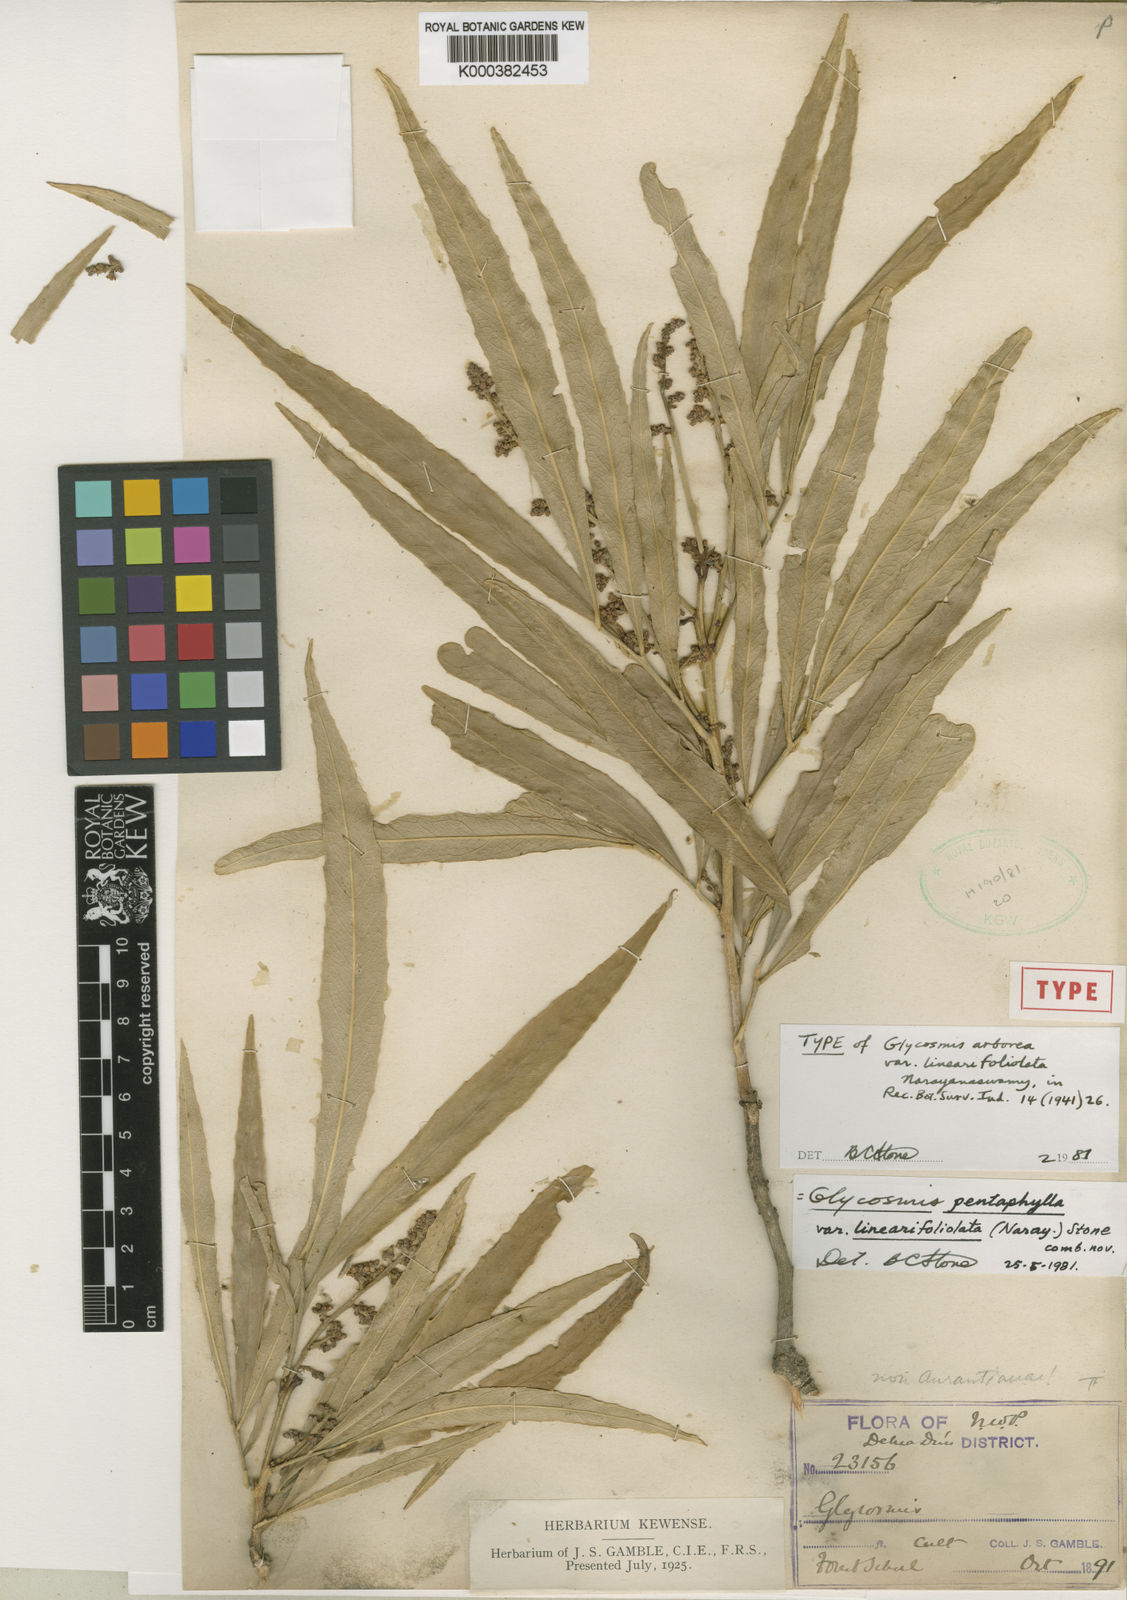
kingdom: Plantae
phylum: Tracheophyta
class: Magnoliopsida
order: Sapindales
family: Rutaceae
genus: Glycosmis
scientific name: Glycosmis pentaphylla
